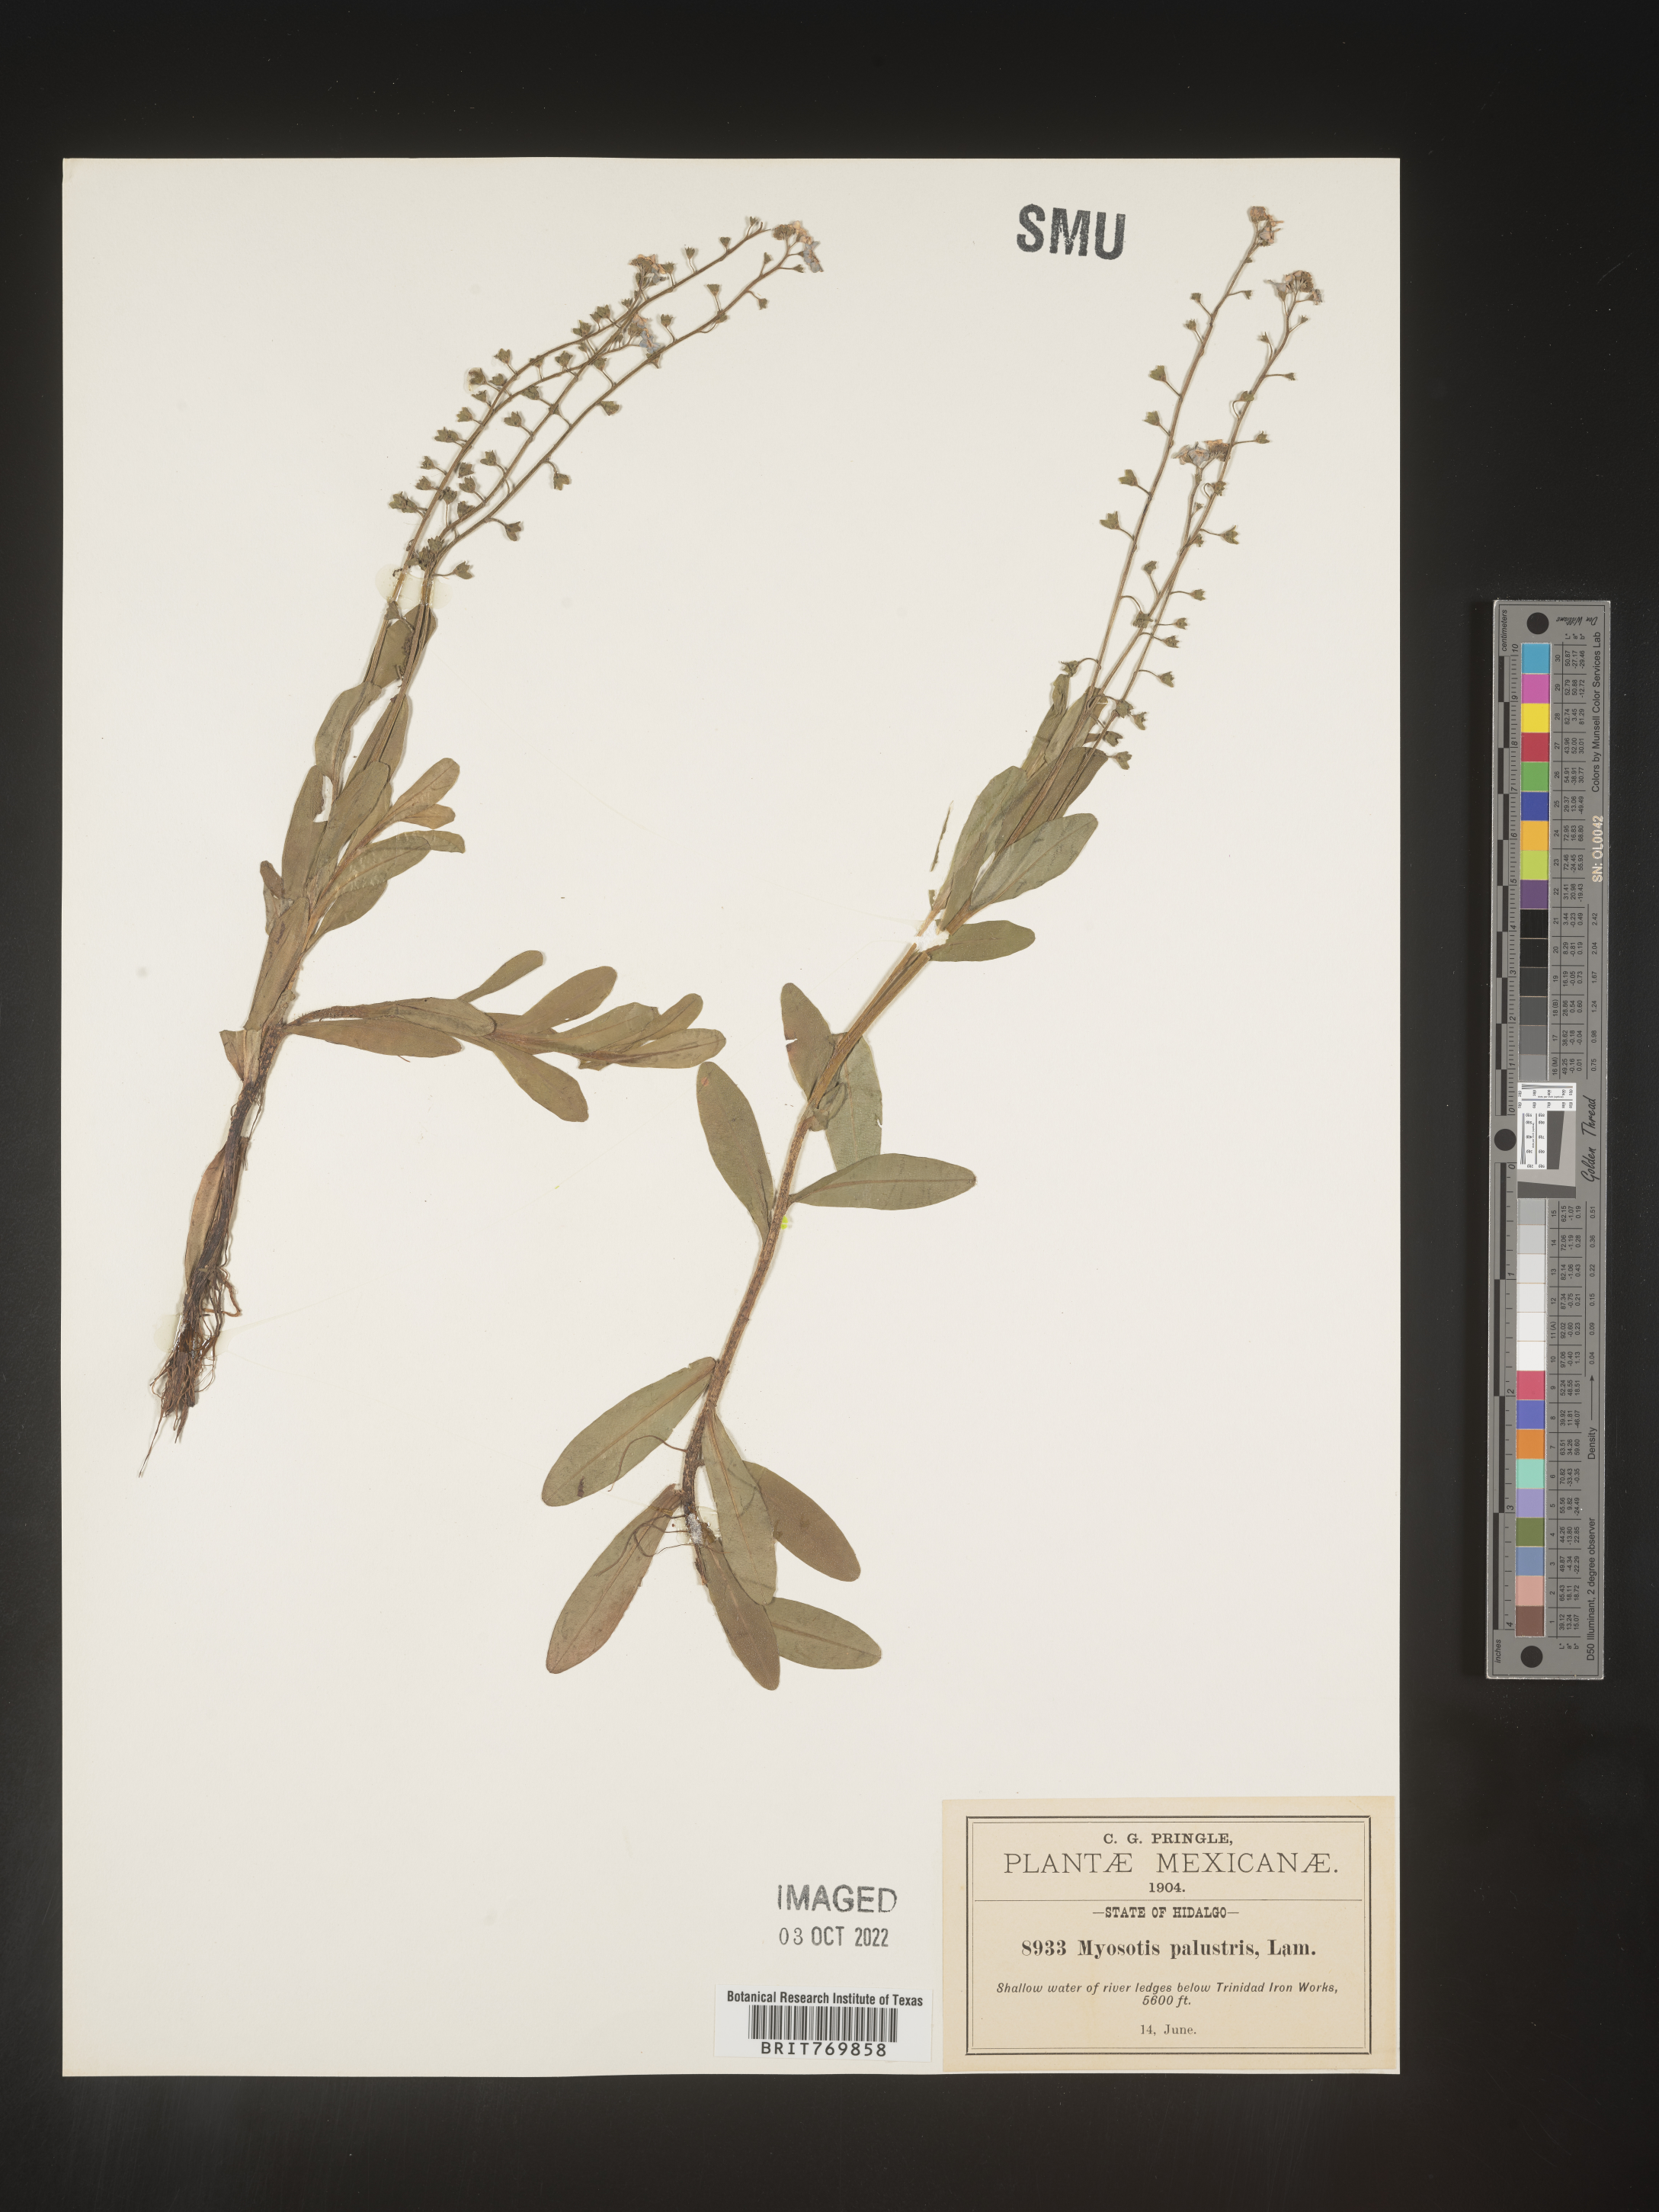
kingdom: Plantae
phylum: Tracheophyta
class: Magnoliopsida
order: Boraginales
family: Boraginaceae
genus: Myosotis
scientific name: Myosotis
